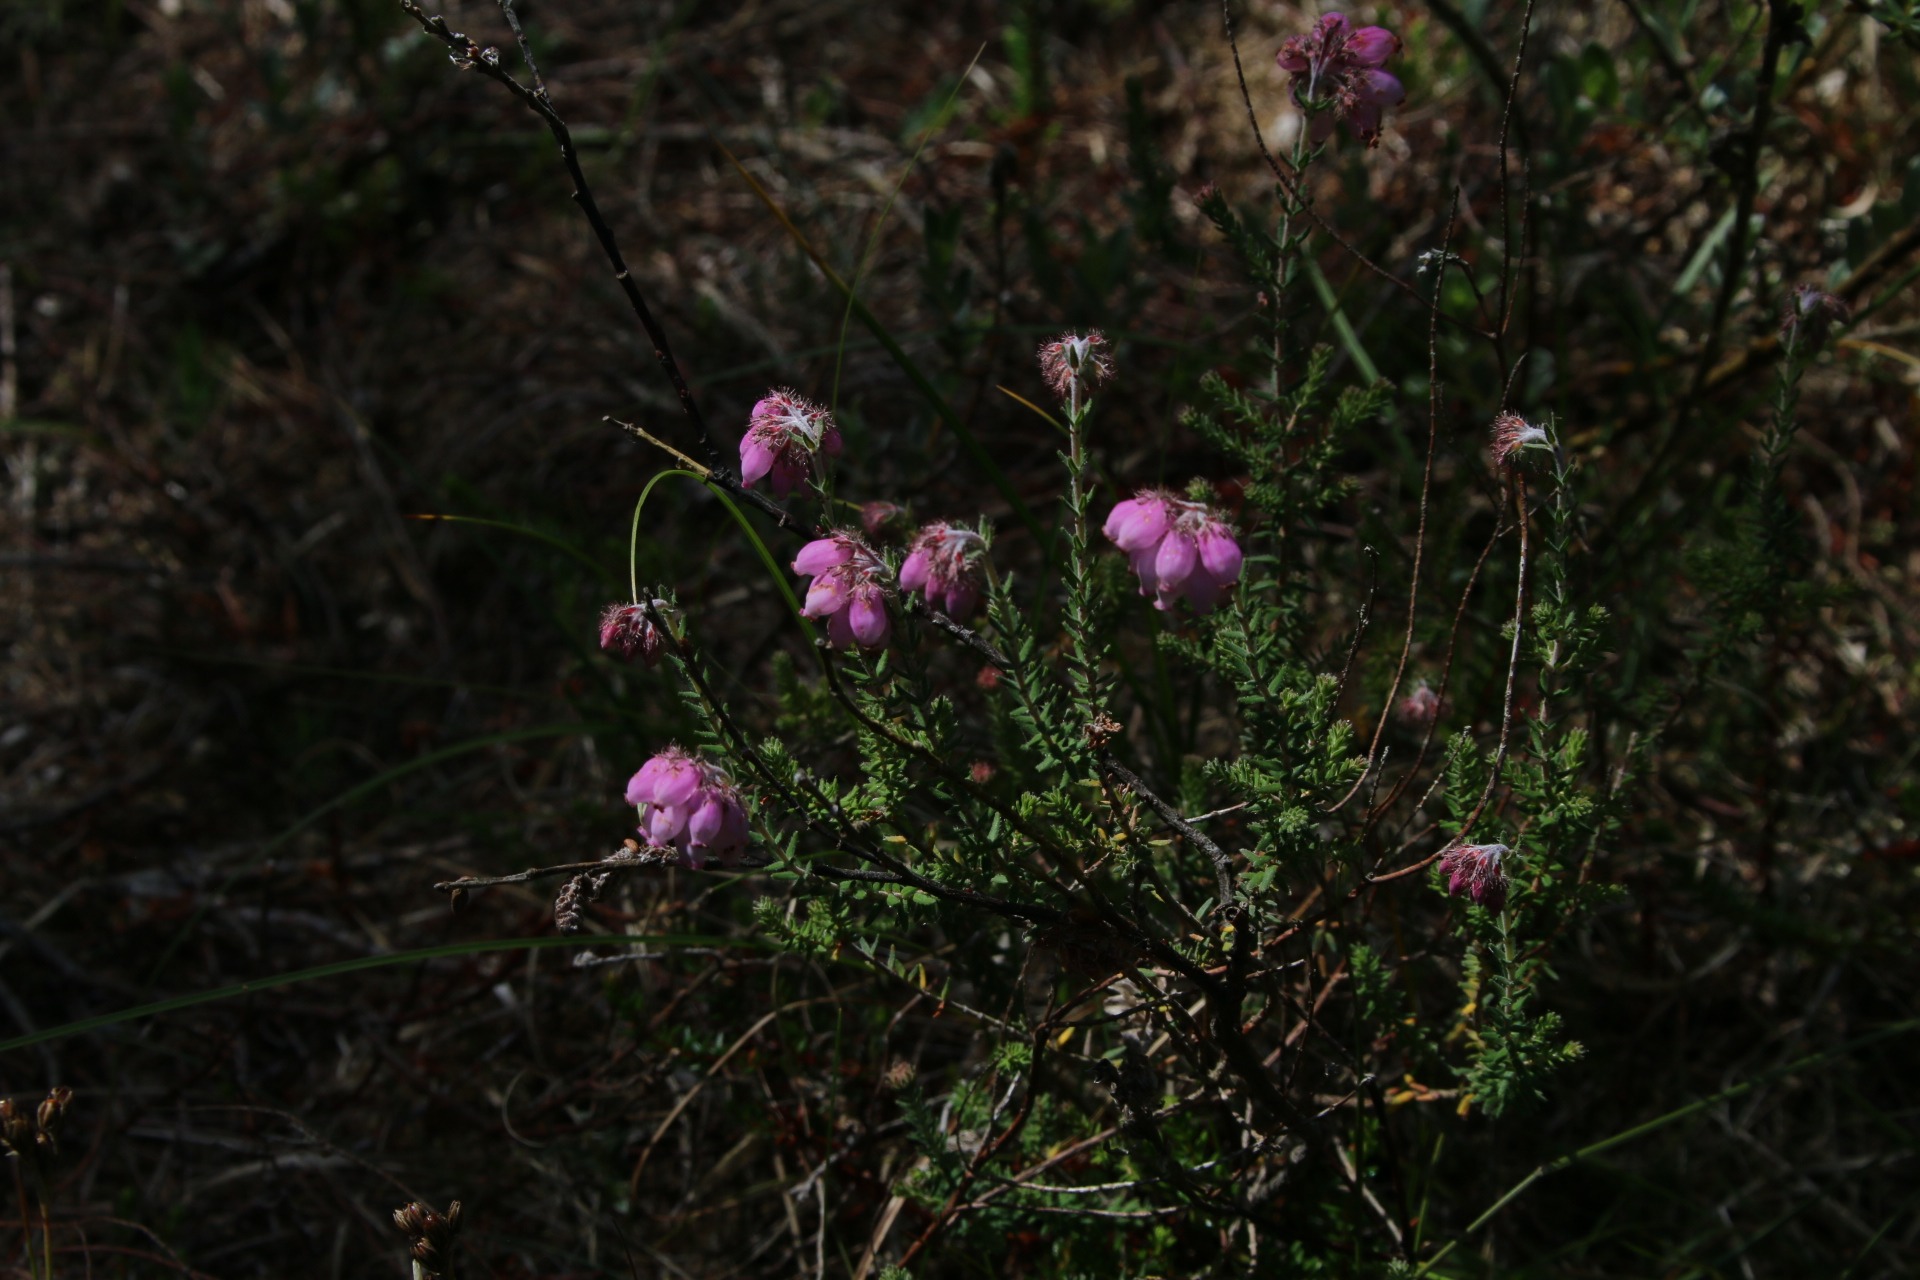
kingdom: Plantae
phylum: Tracheophyta
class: Magnoliopsida
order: Ericales
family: Ericaceae
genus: Erica
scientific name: Erica tetralix
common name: Klokkelyng
